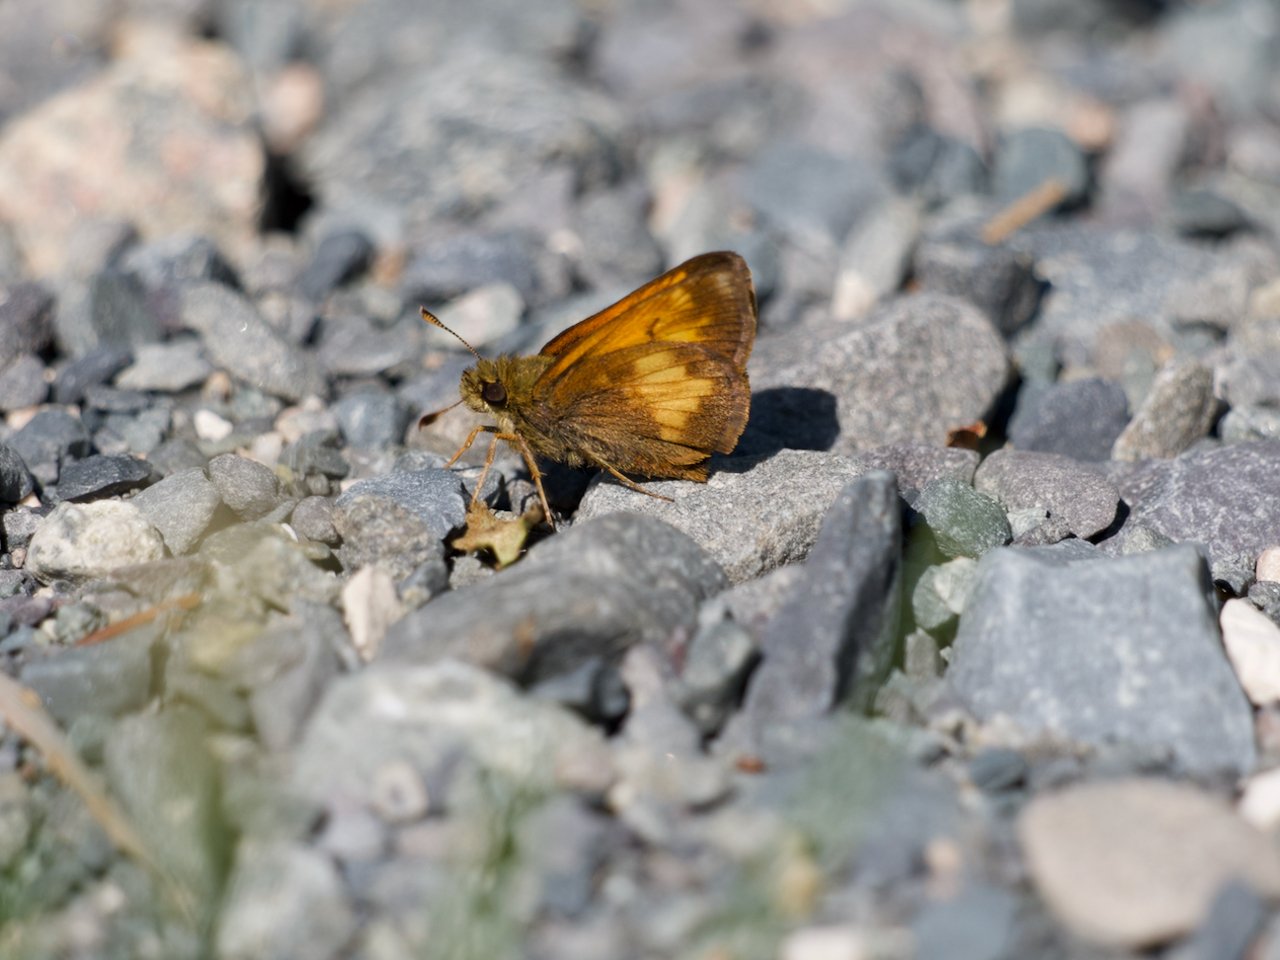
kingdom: Animalia
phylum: Arthropoda
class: Insecta
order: Lepidoptera
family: Hesperiidae
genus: Lon
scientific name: Lon hobomok
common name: Hobomok Skipper
